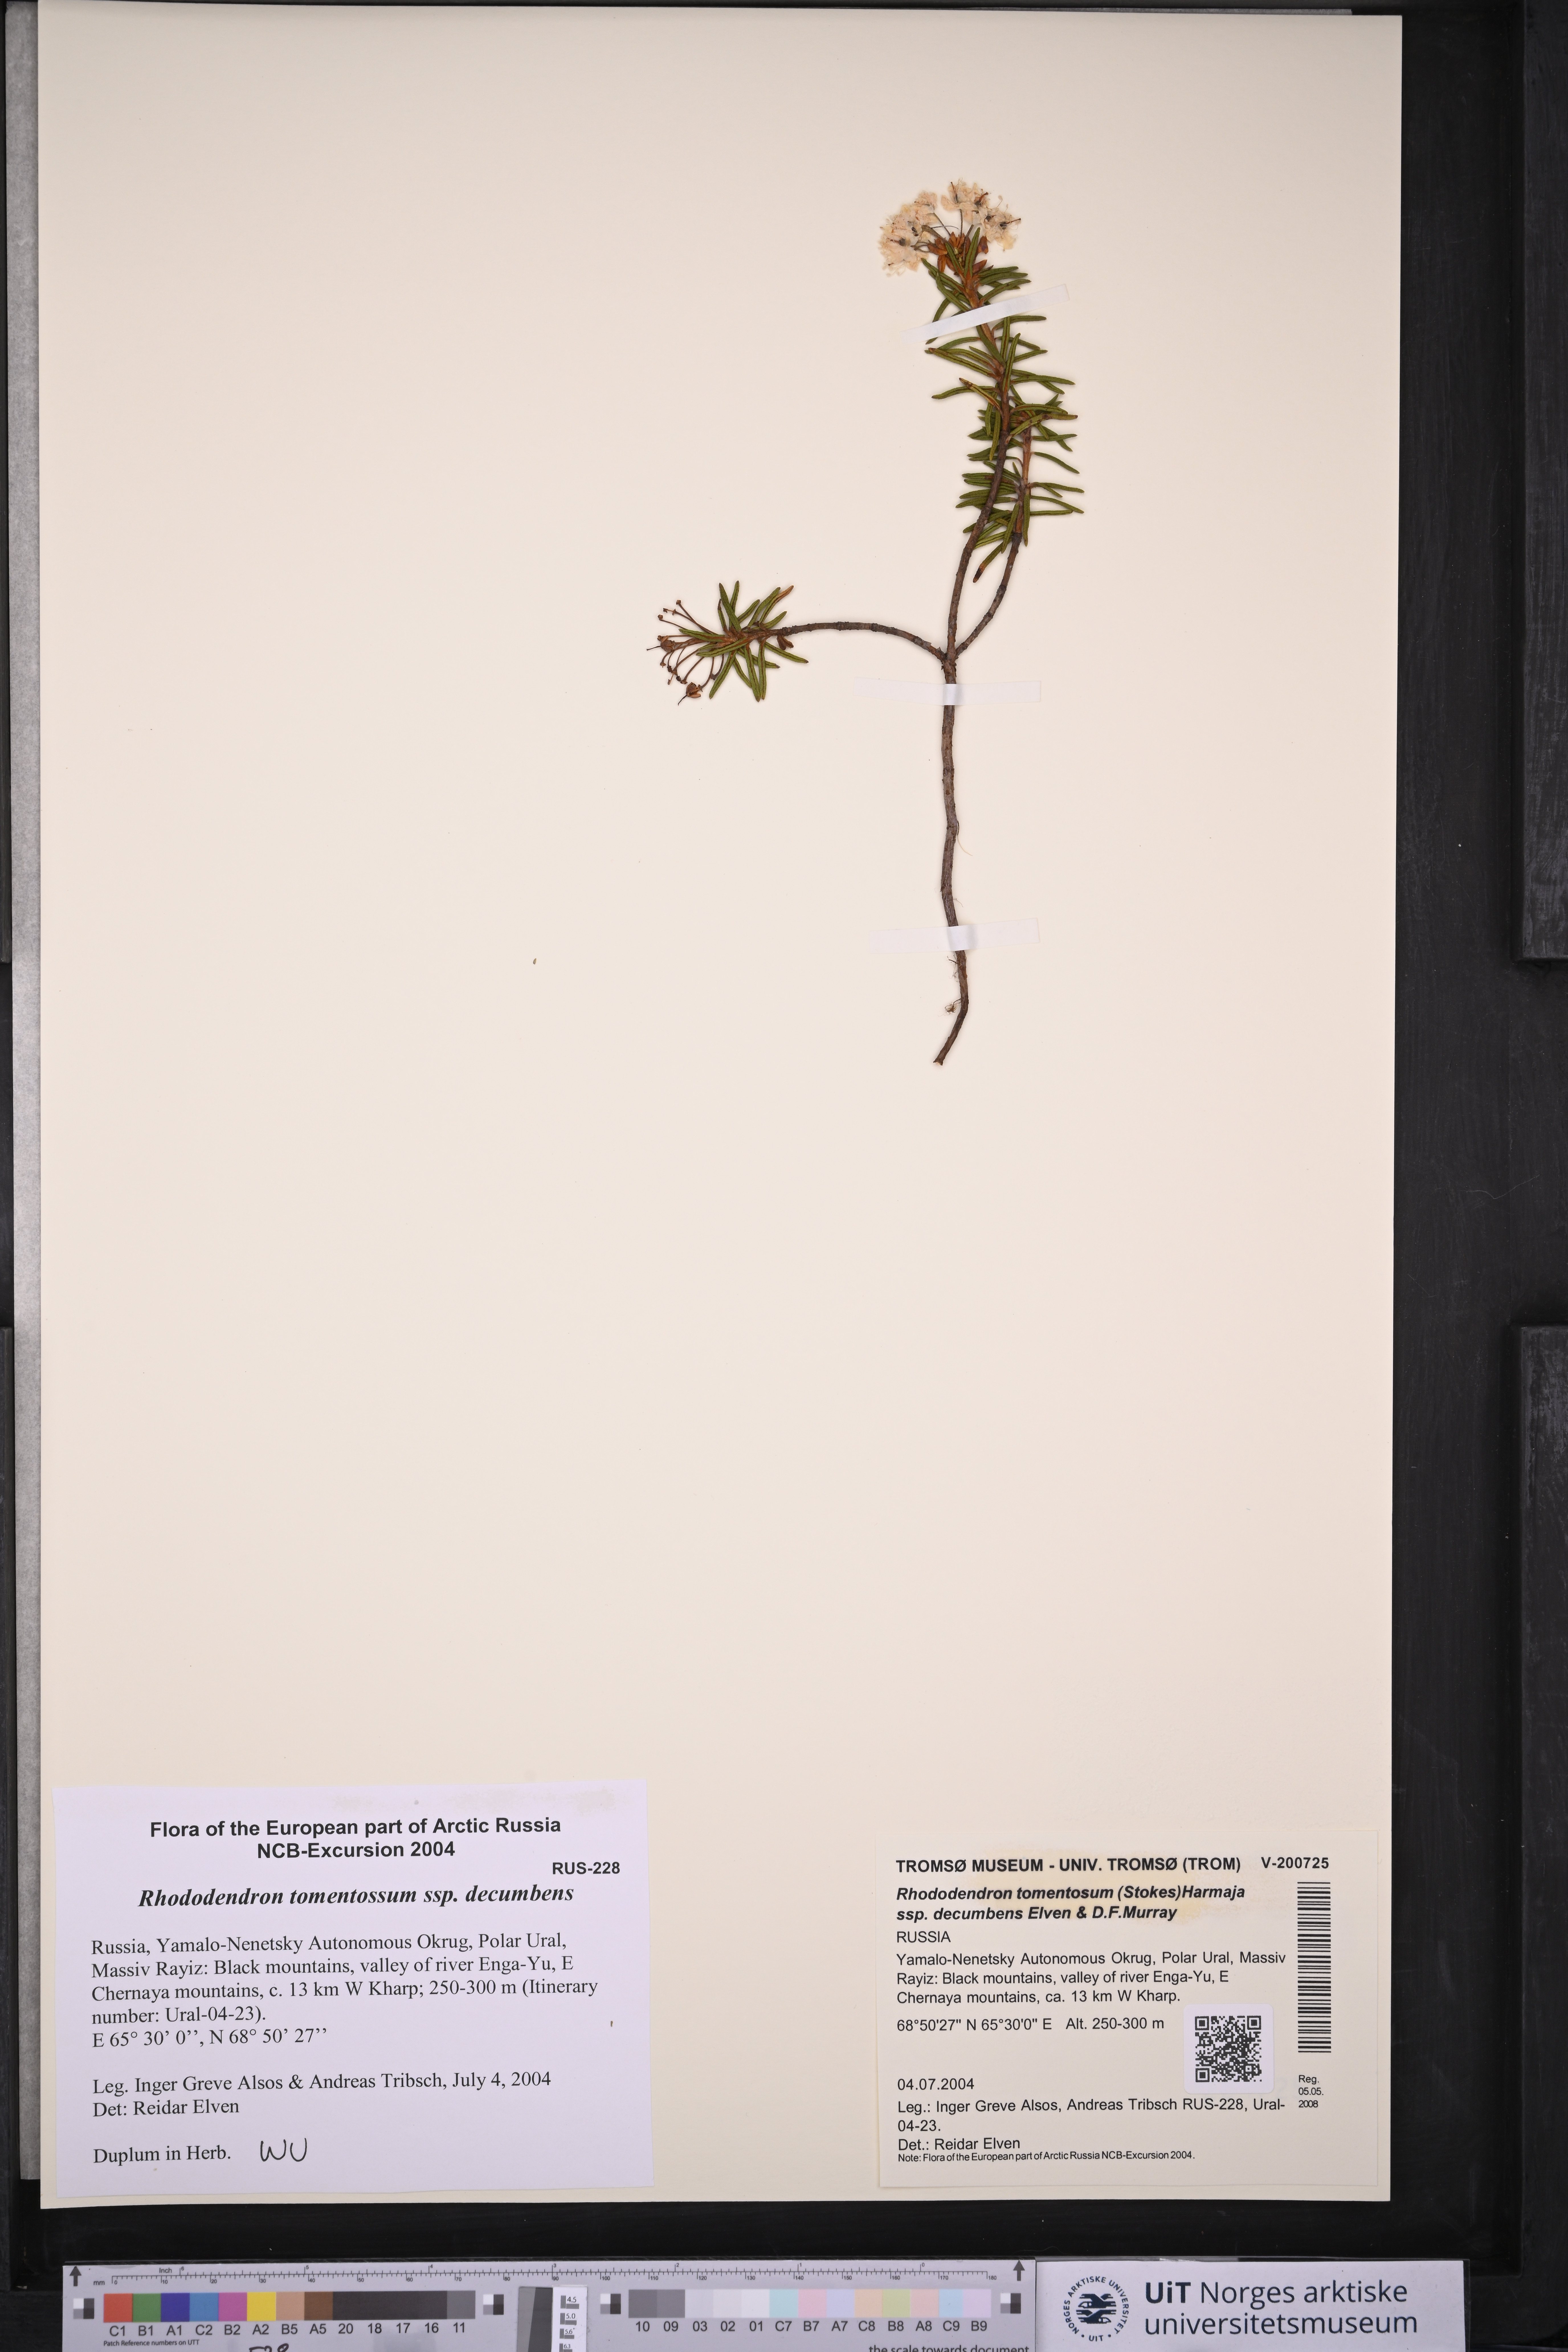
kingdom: Plantae
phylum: Tracheophyta
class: Magnoliopsida
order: Ericales
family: Ericaceae
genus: Rhododendron
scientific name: Rhododendron tomentosum
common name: Marsh labrador tea
